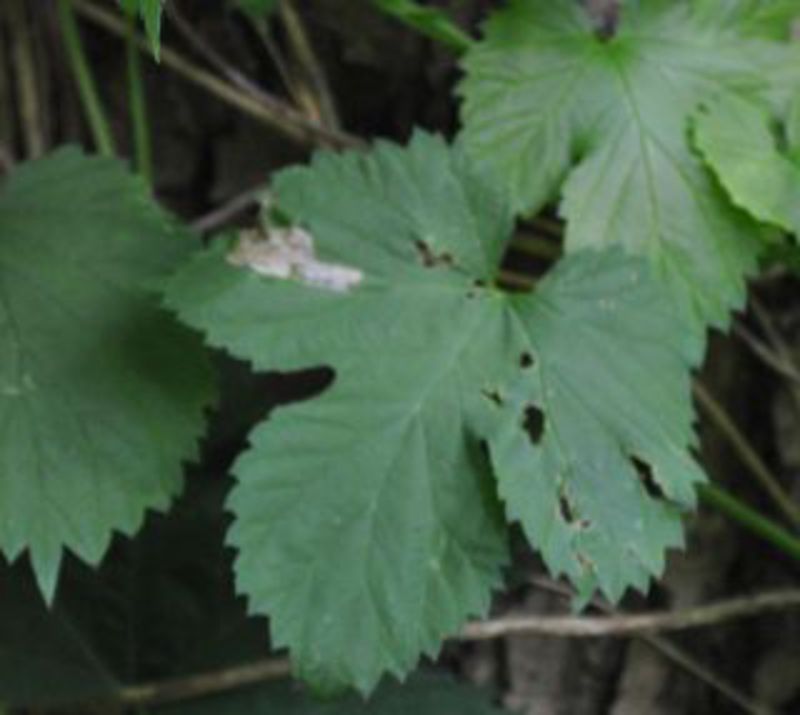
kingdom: Animalia
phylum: Arthropoda
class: Insecta
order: Lepidoptera
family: Gracillariidae
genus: Caloptilia
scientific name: Caloptilia fidella
